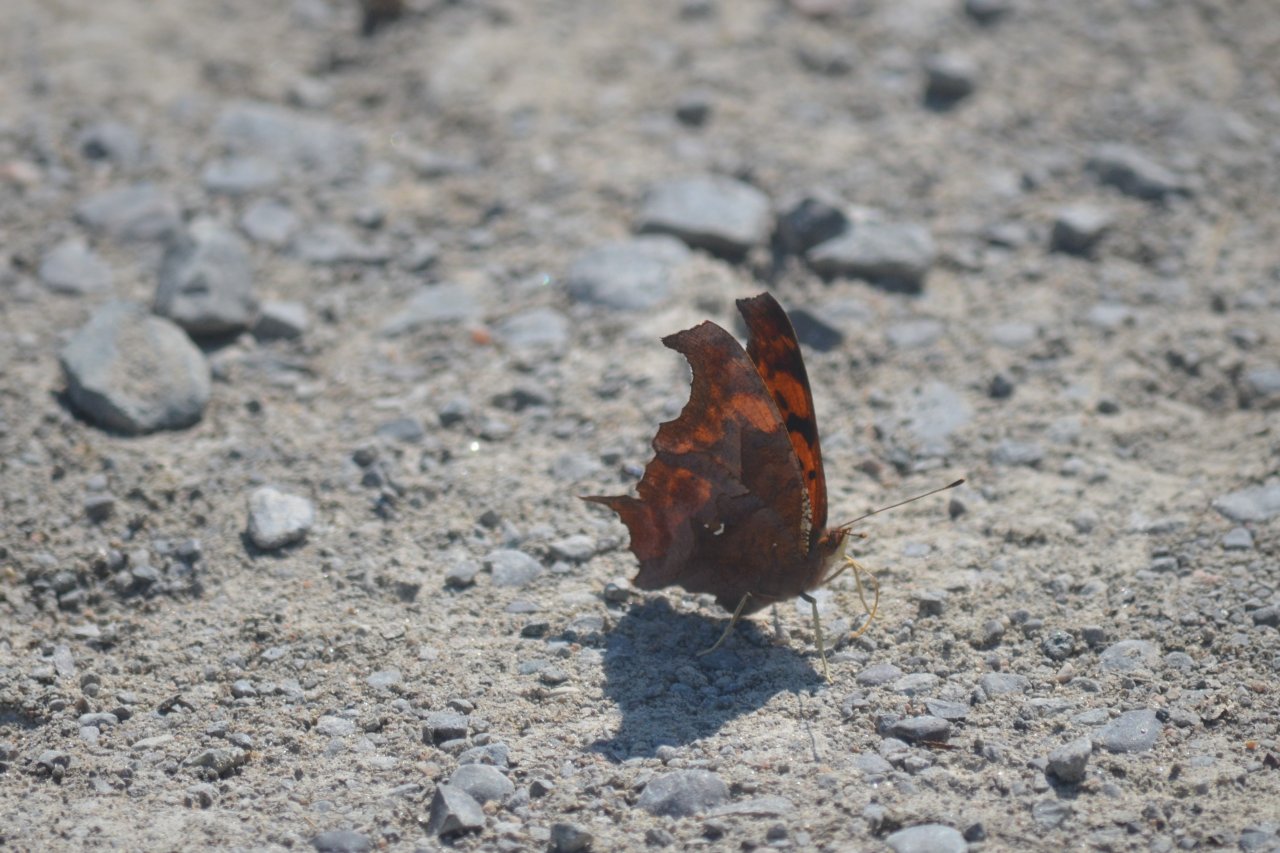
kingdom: Animalia
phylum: Arthropoda
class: Insecta
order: Lepidoptera
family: Nymphalidae
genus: Polygonia
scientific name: Polygonia interrogationis
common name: Question Mark
